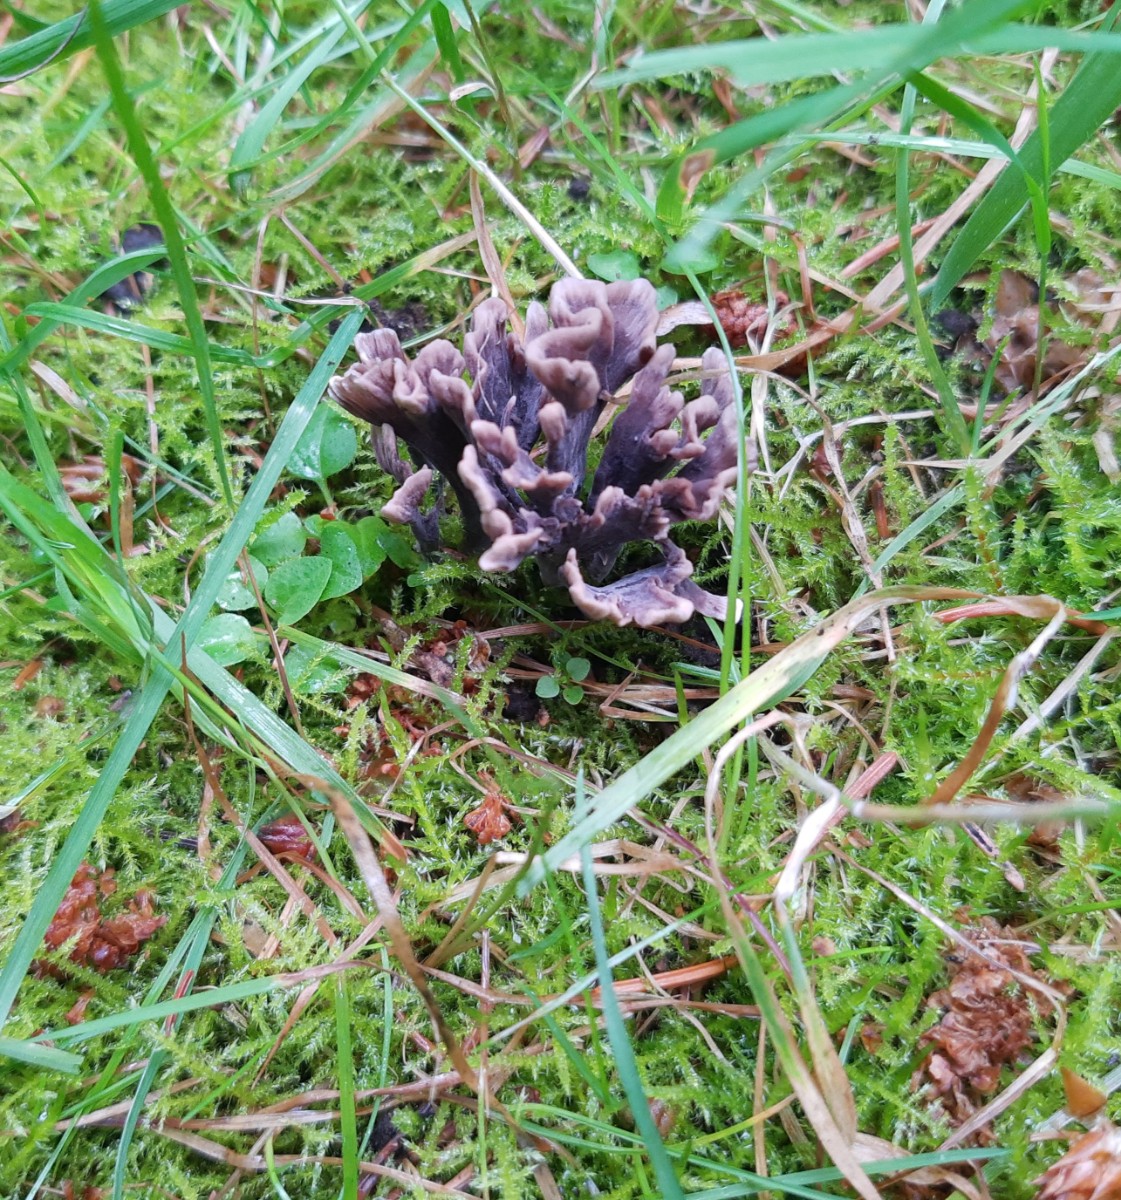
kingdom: Fungi
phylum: Basidiomycota
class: Agaricomycetes
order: Thelephorales
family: Thelephoraceae
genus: Thelephora
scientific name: Thelephora palmata
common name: grenet frynsesvamp
